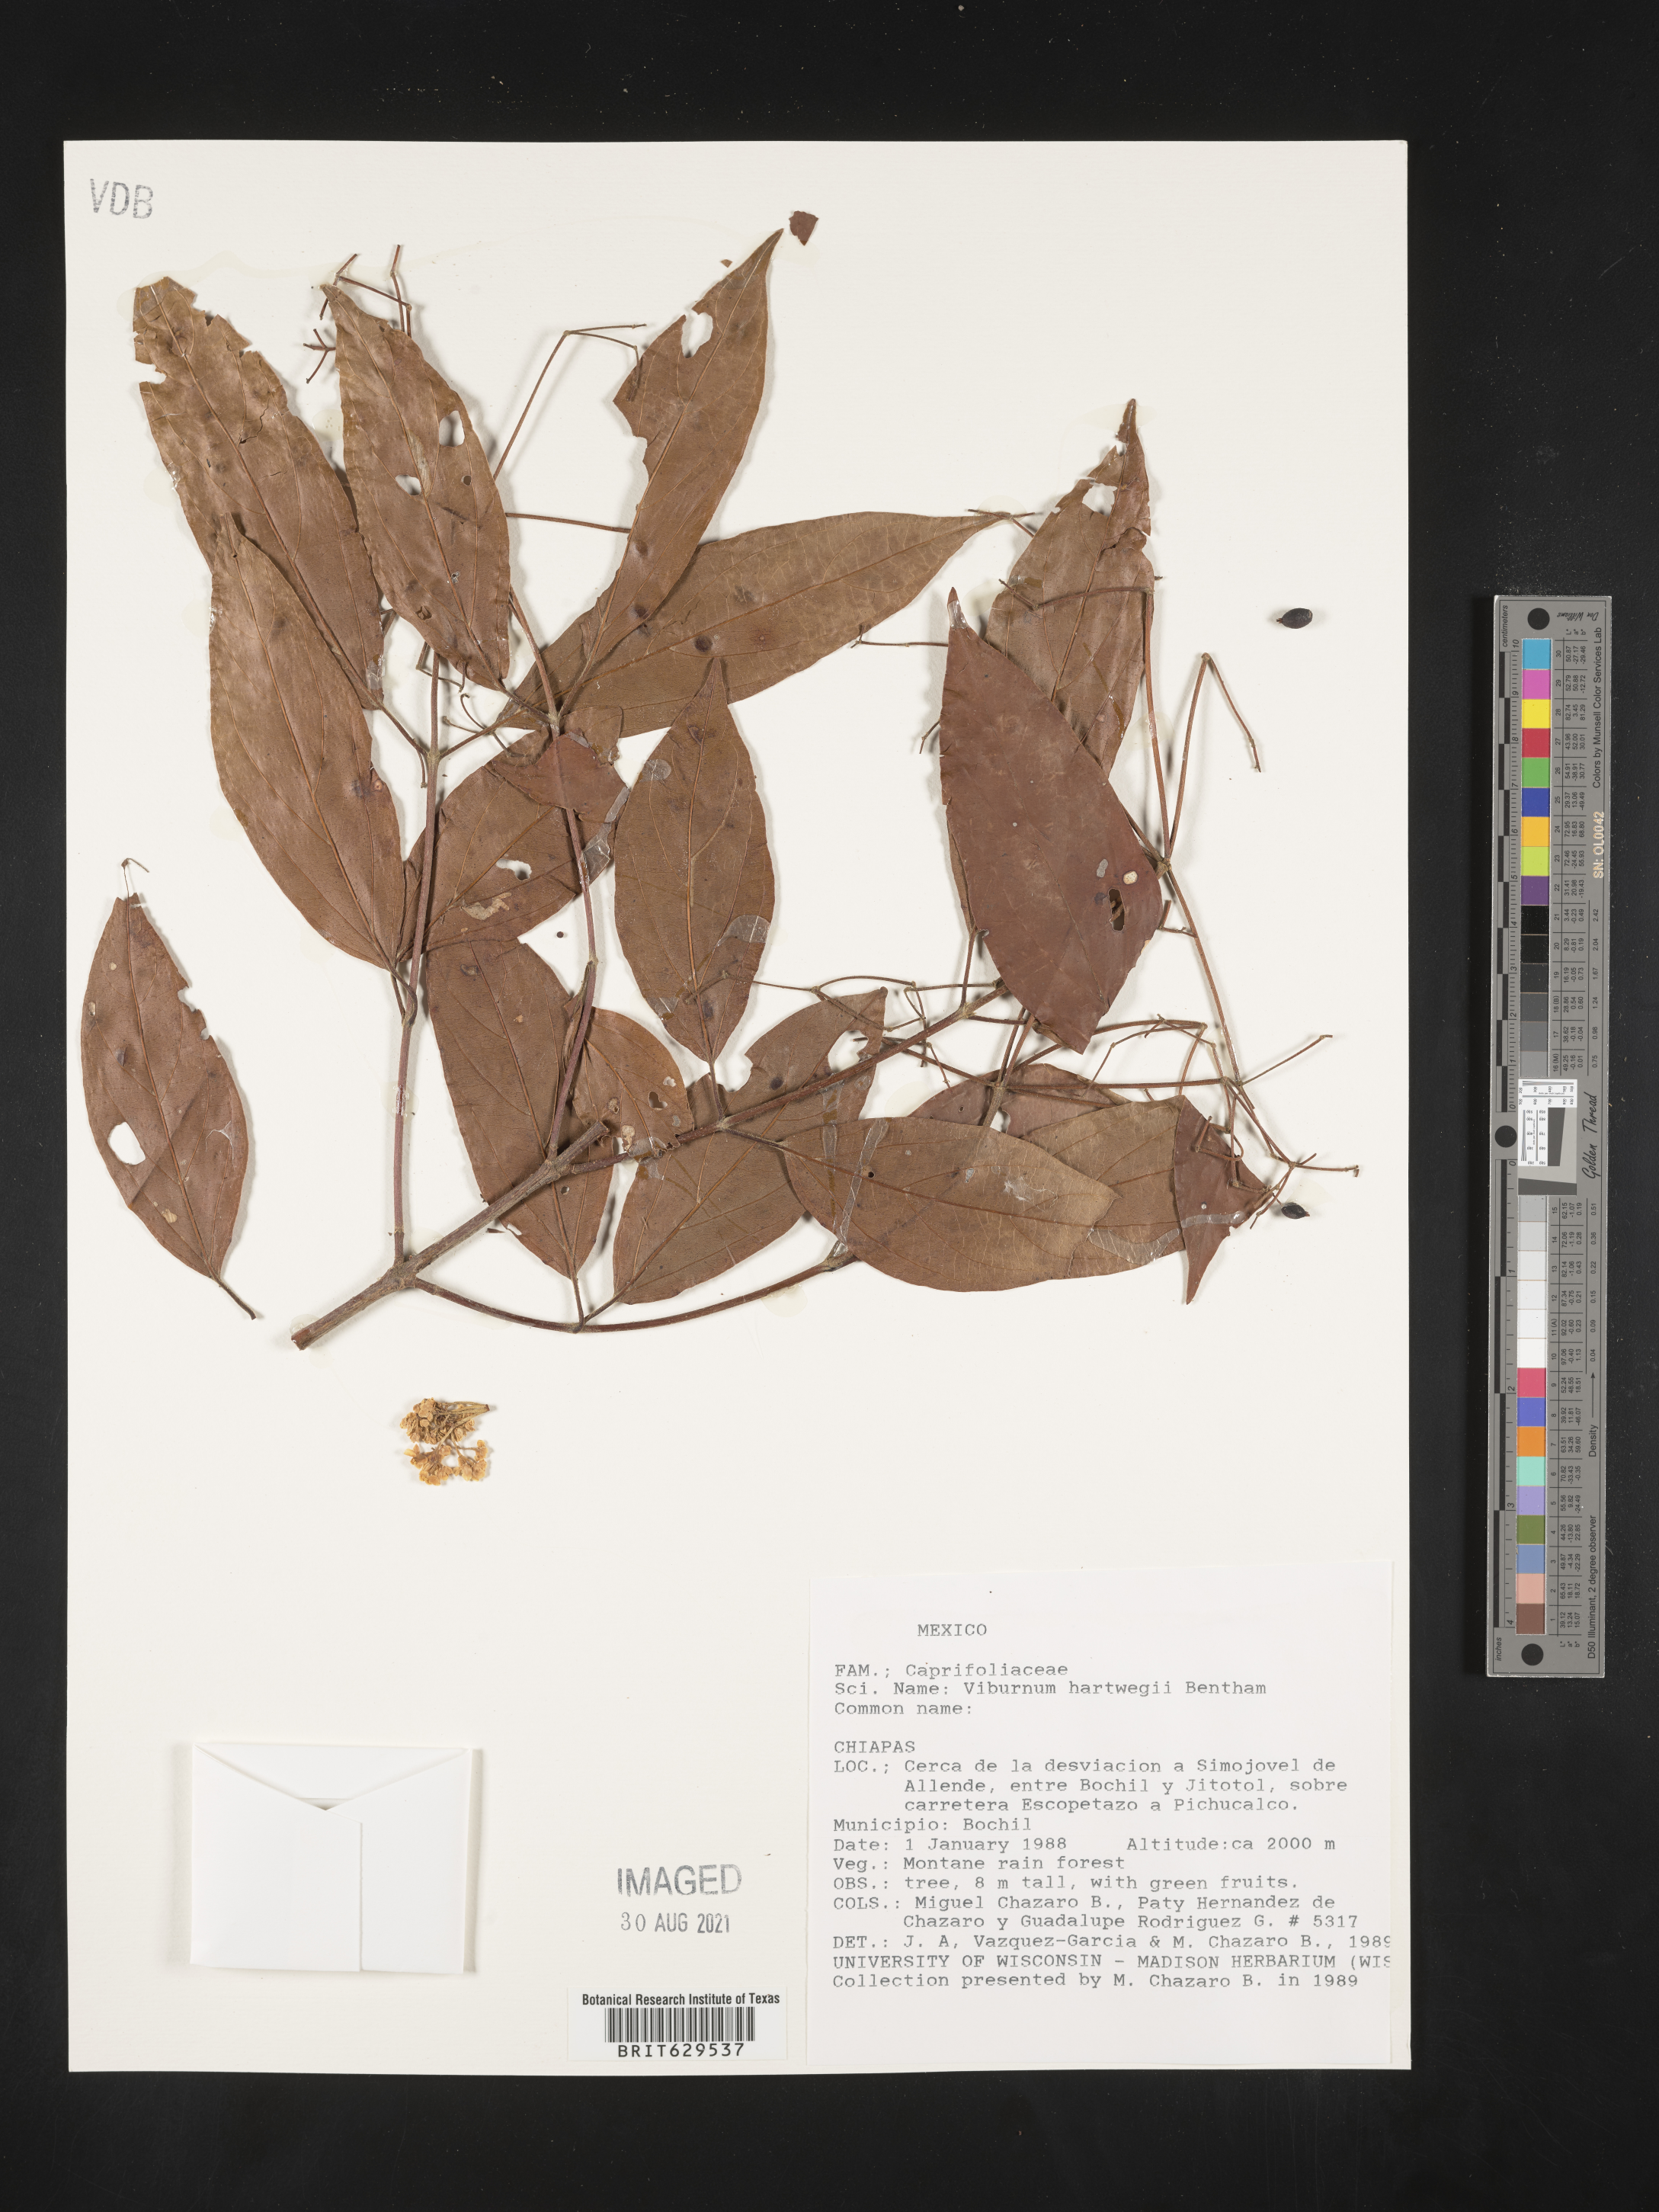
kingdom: Plantae
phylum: Tracheophyta
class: Magnoliopsida
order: Dipsacales
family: Viburnaceae
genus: Viburnum
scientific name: Viburnum
